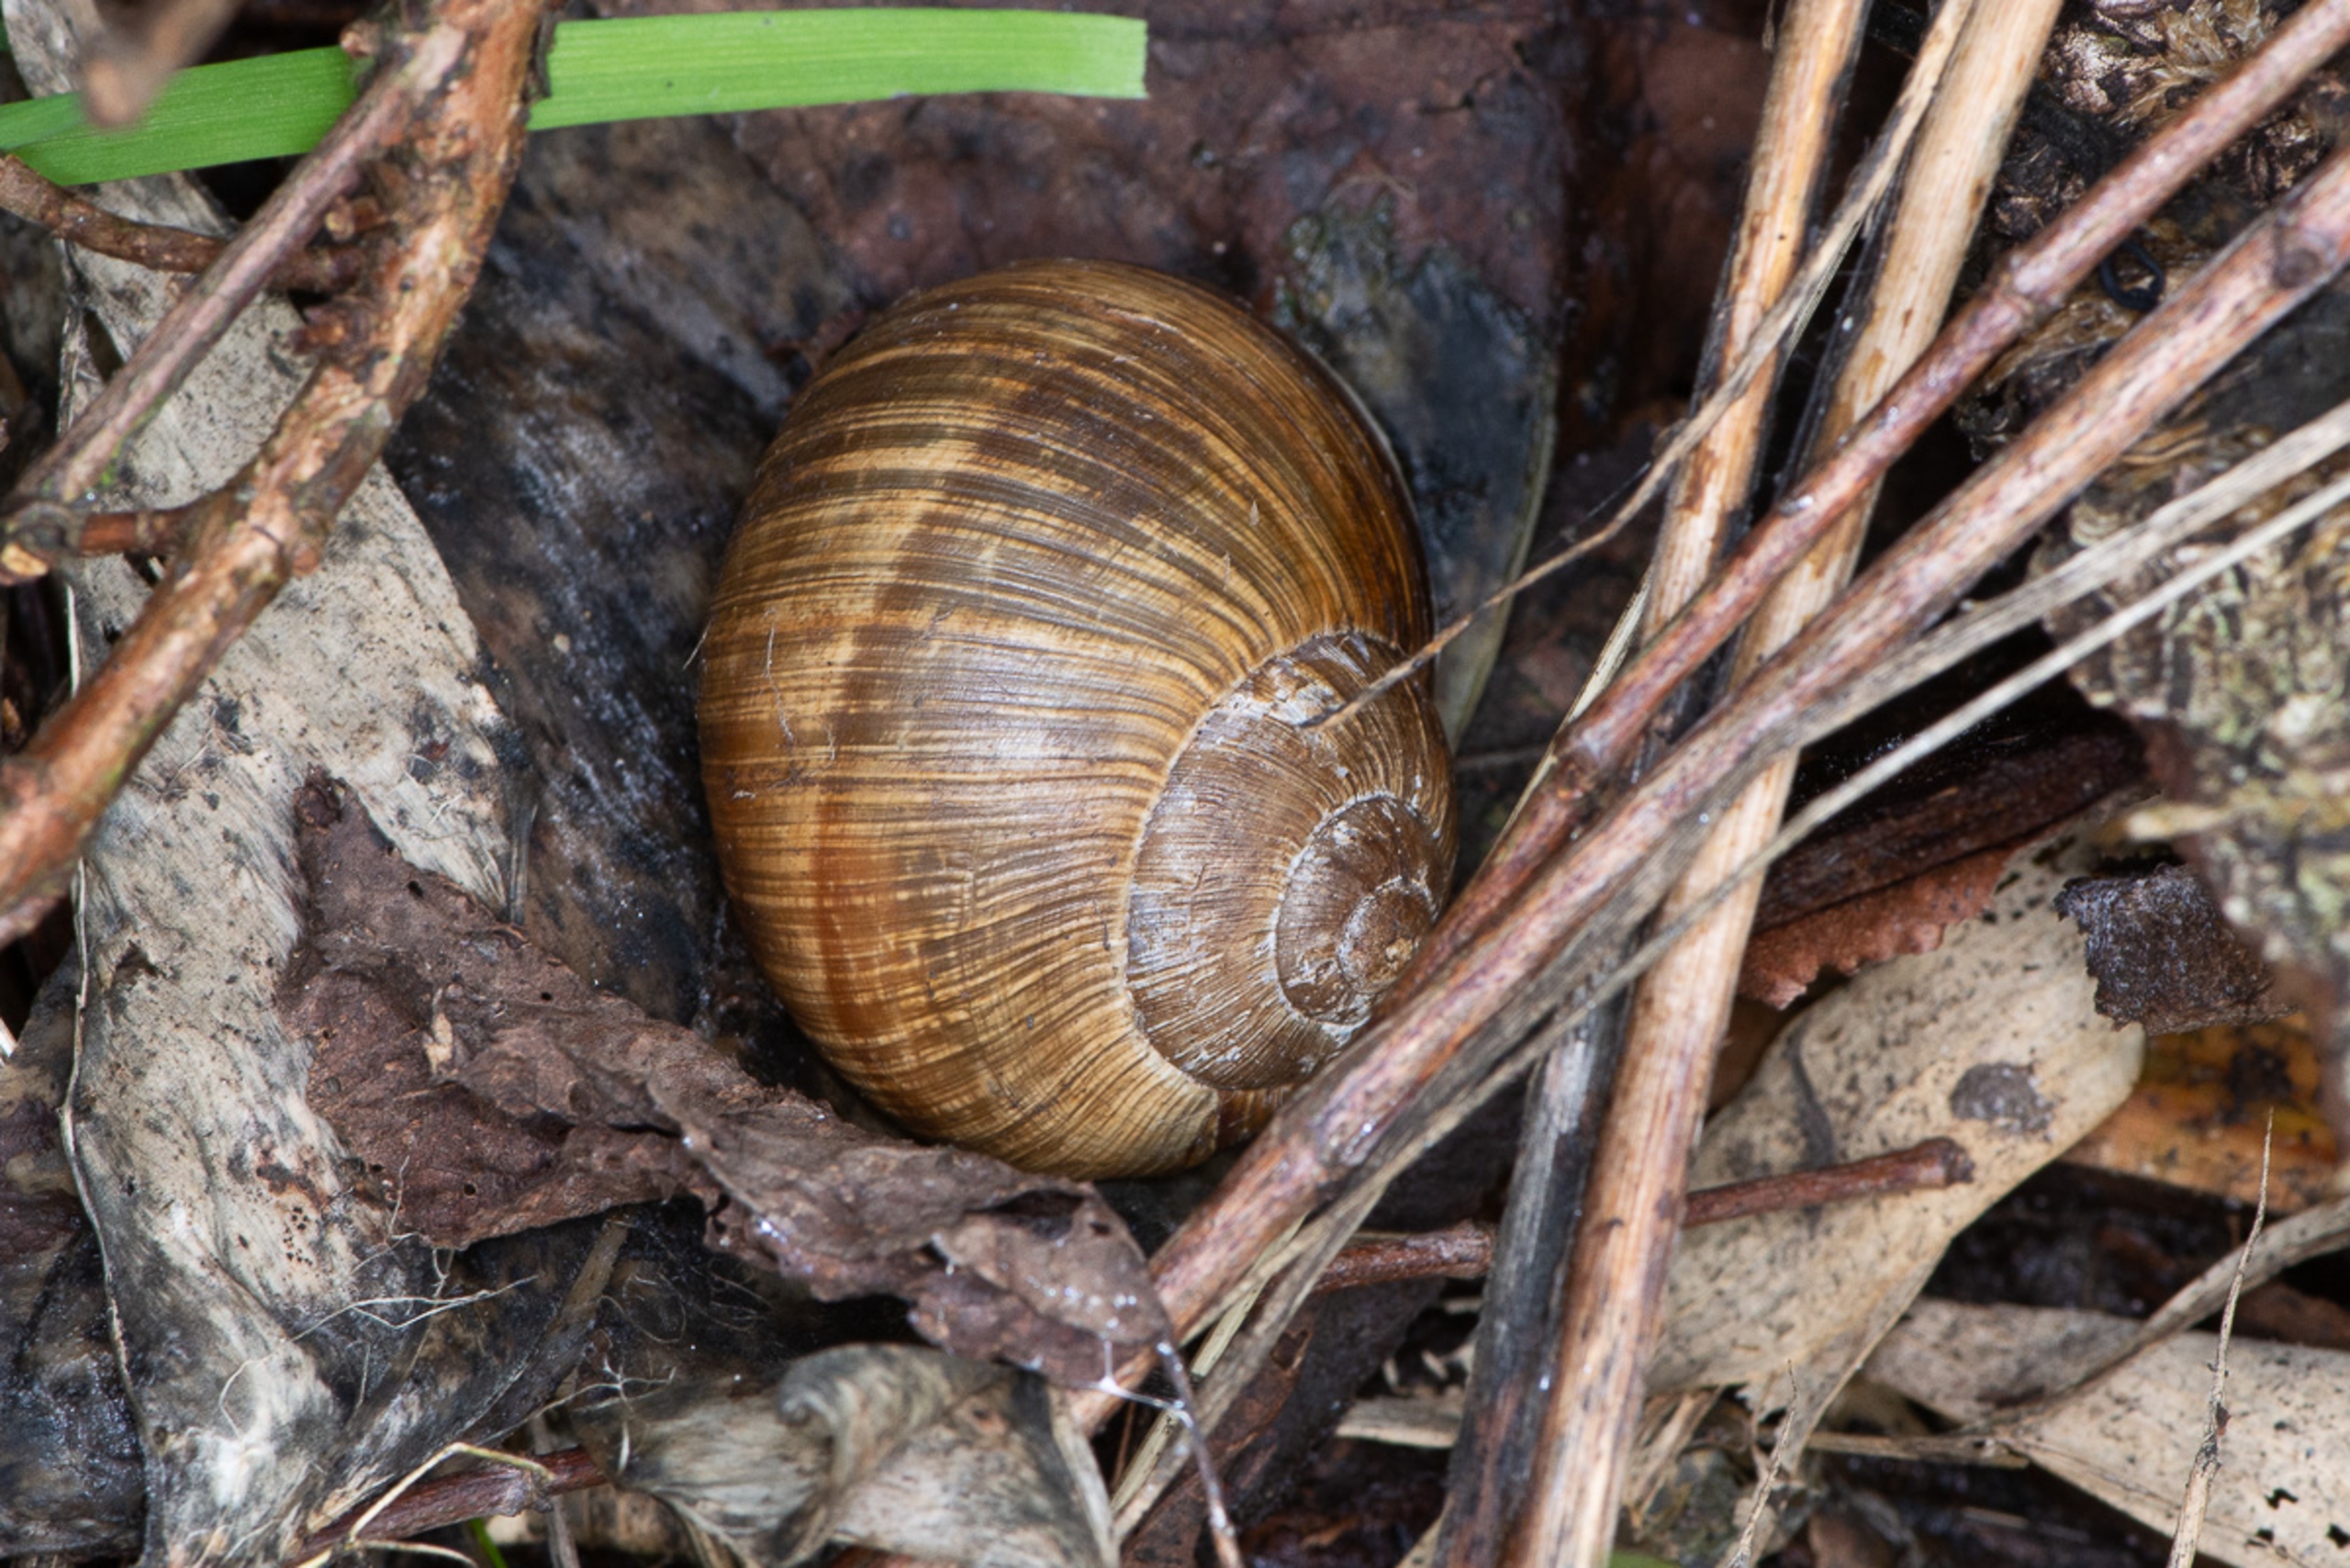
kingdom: Animalia
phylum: Mollusca
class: Gastropoda
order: Stylommatophora
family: Helicidae
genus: Helix
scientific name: Helix pomatia
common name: Vinbjergsnegl
